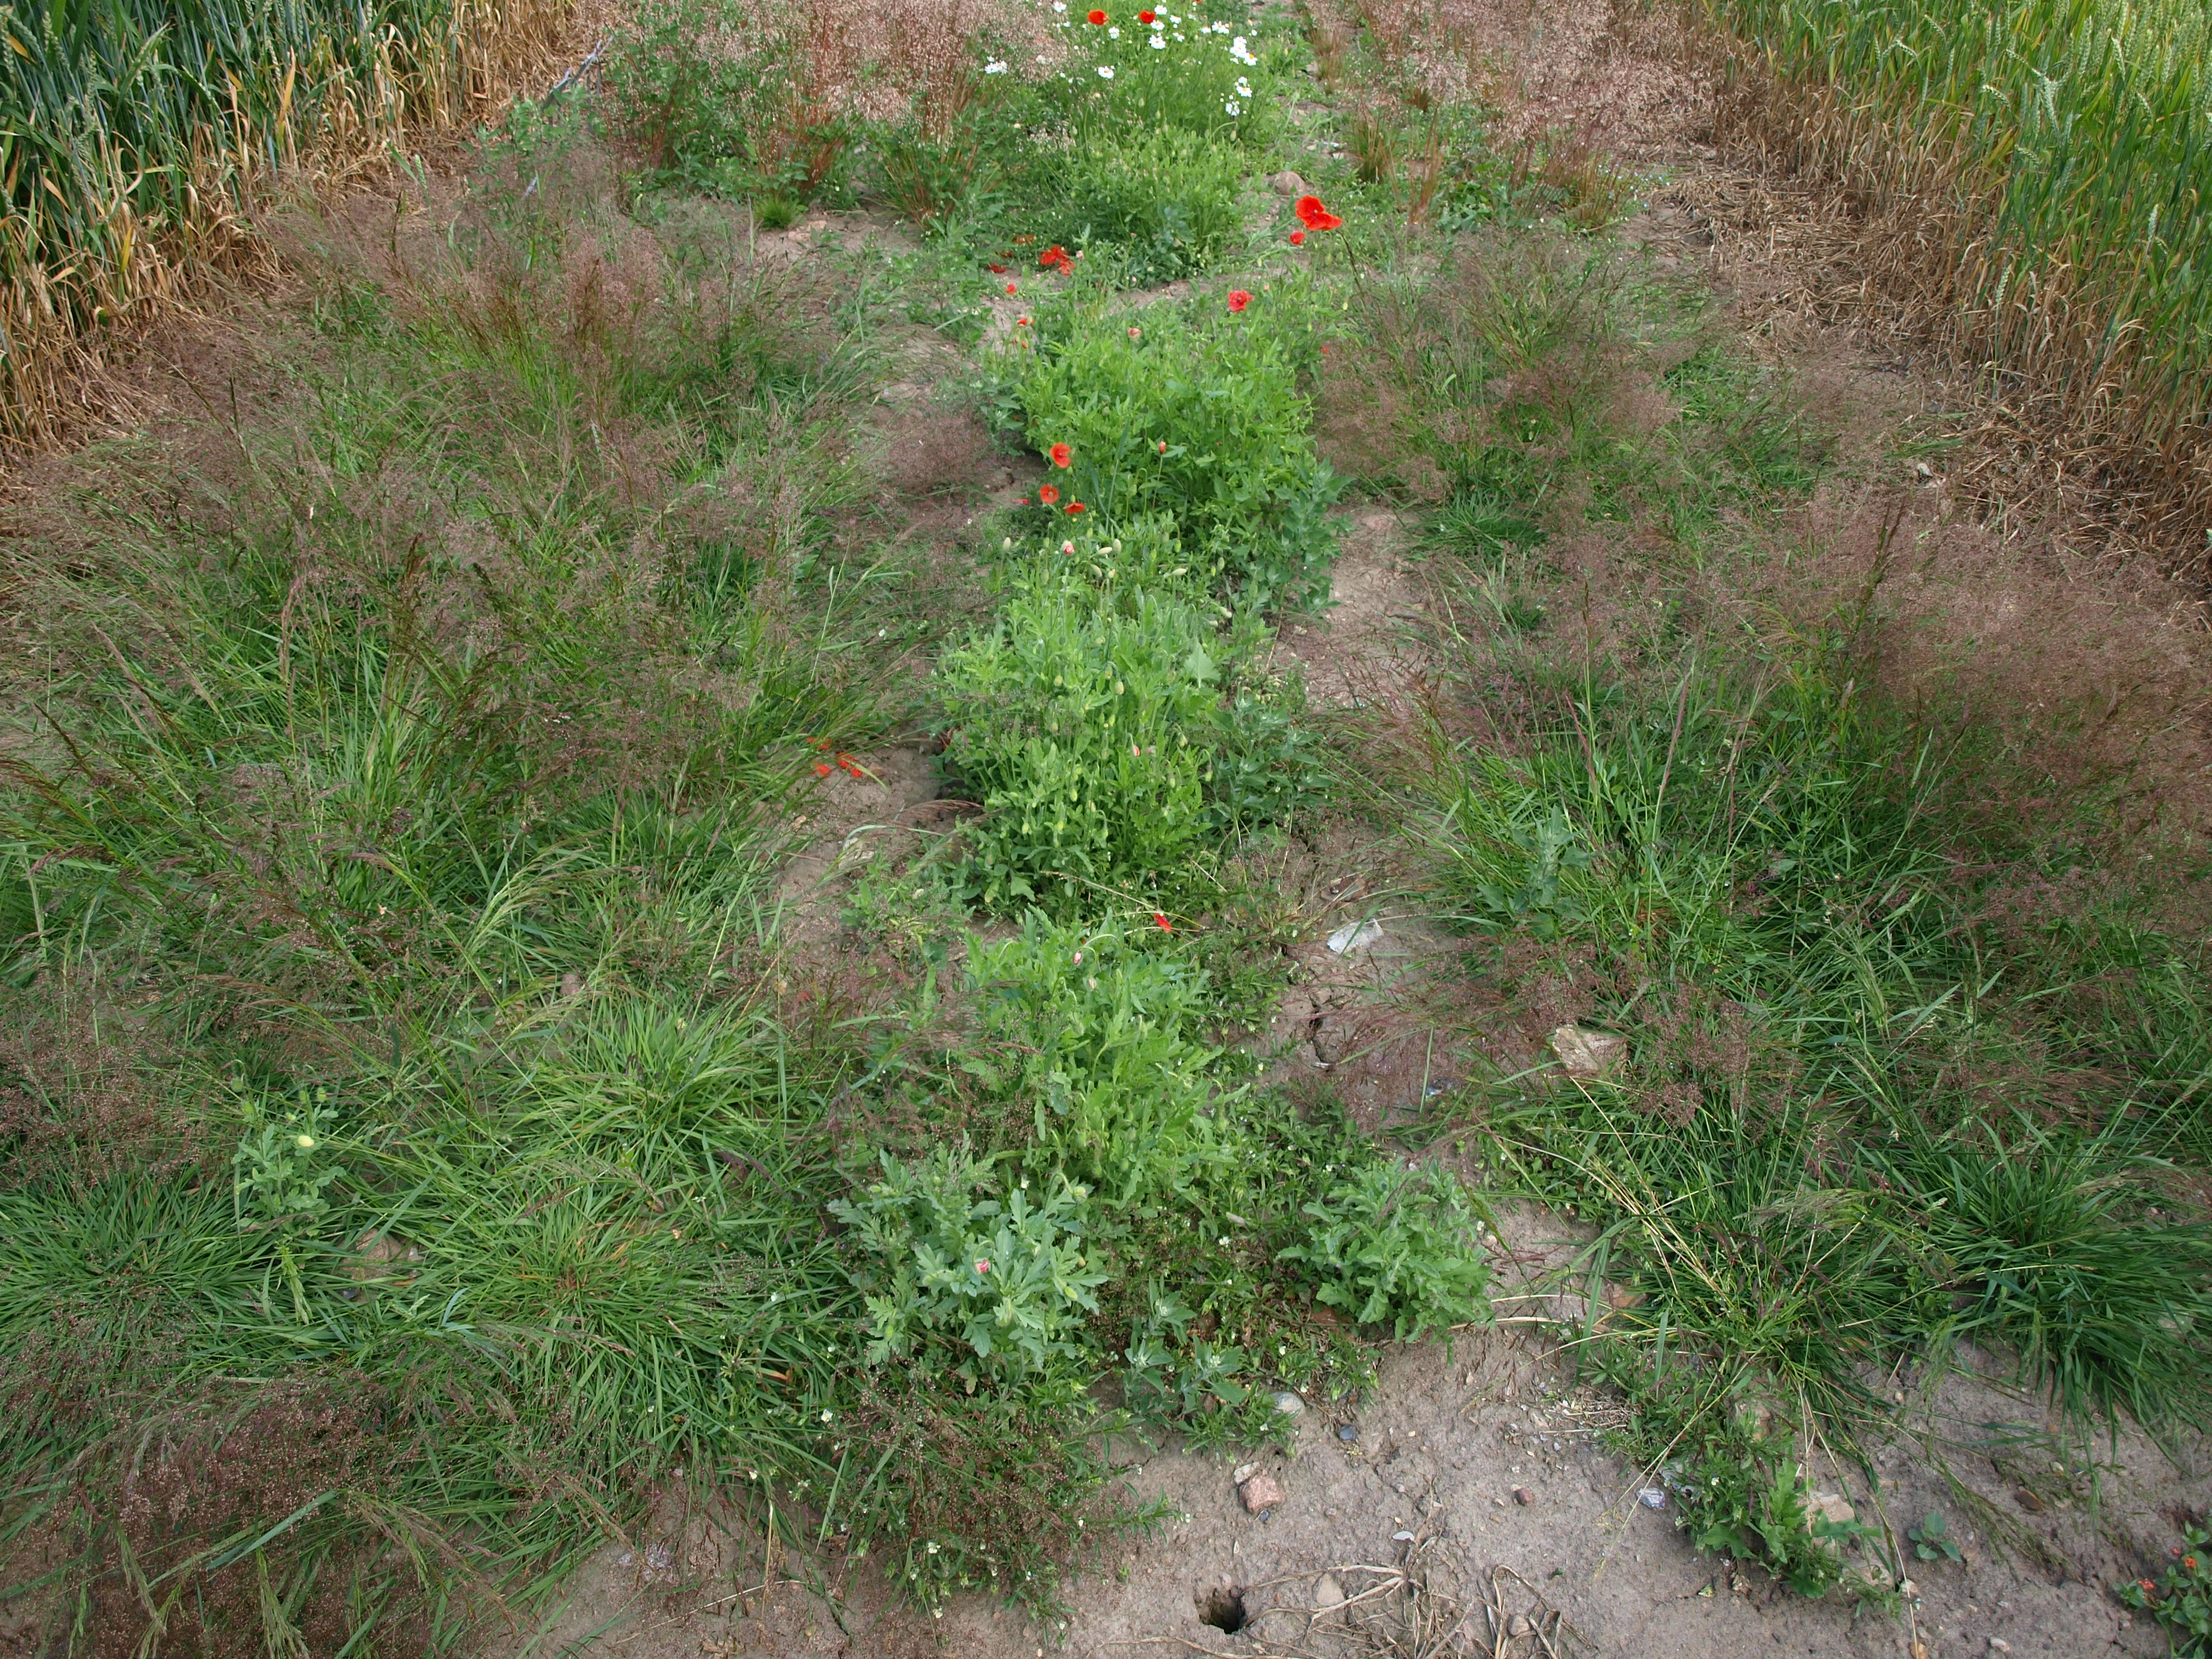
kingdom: Plantae
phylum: Tracheophyta
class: Liliopsida
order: Poales
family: Poaceae
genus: Agrostis
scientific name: Agrostis capillaris
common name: Colonial bentgrass
